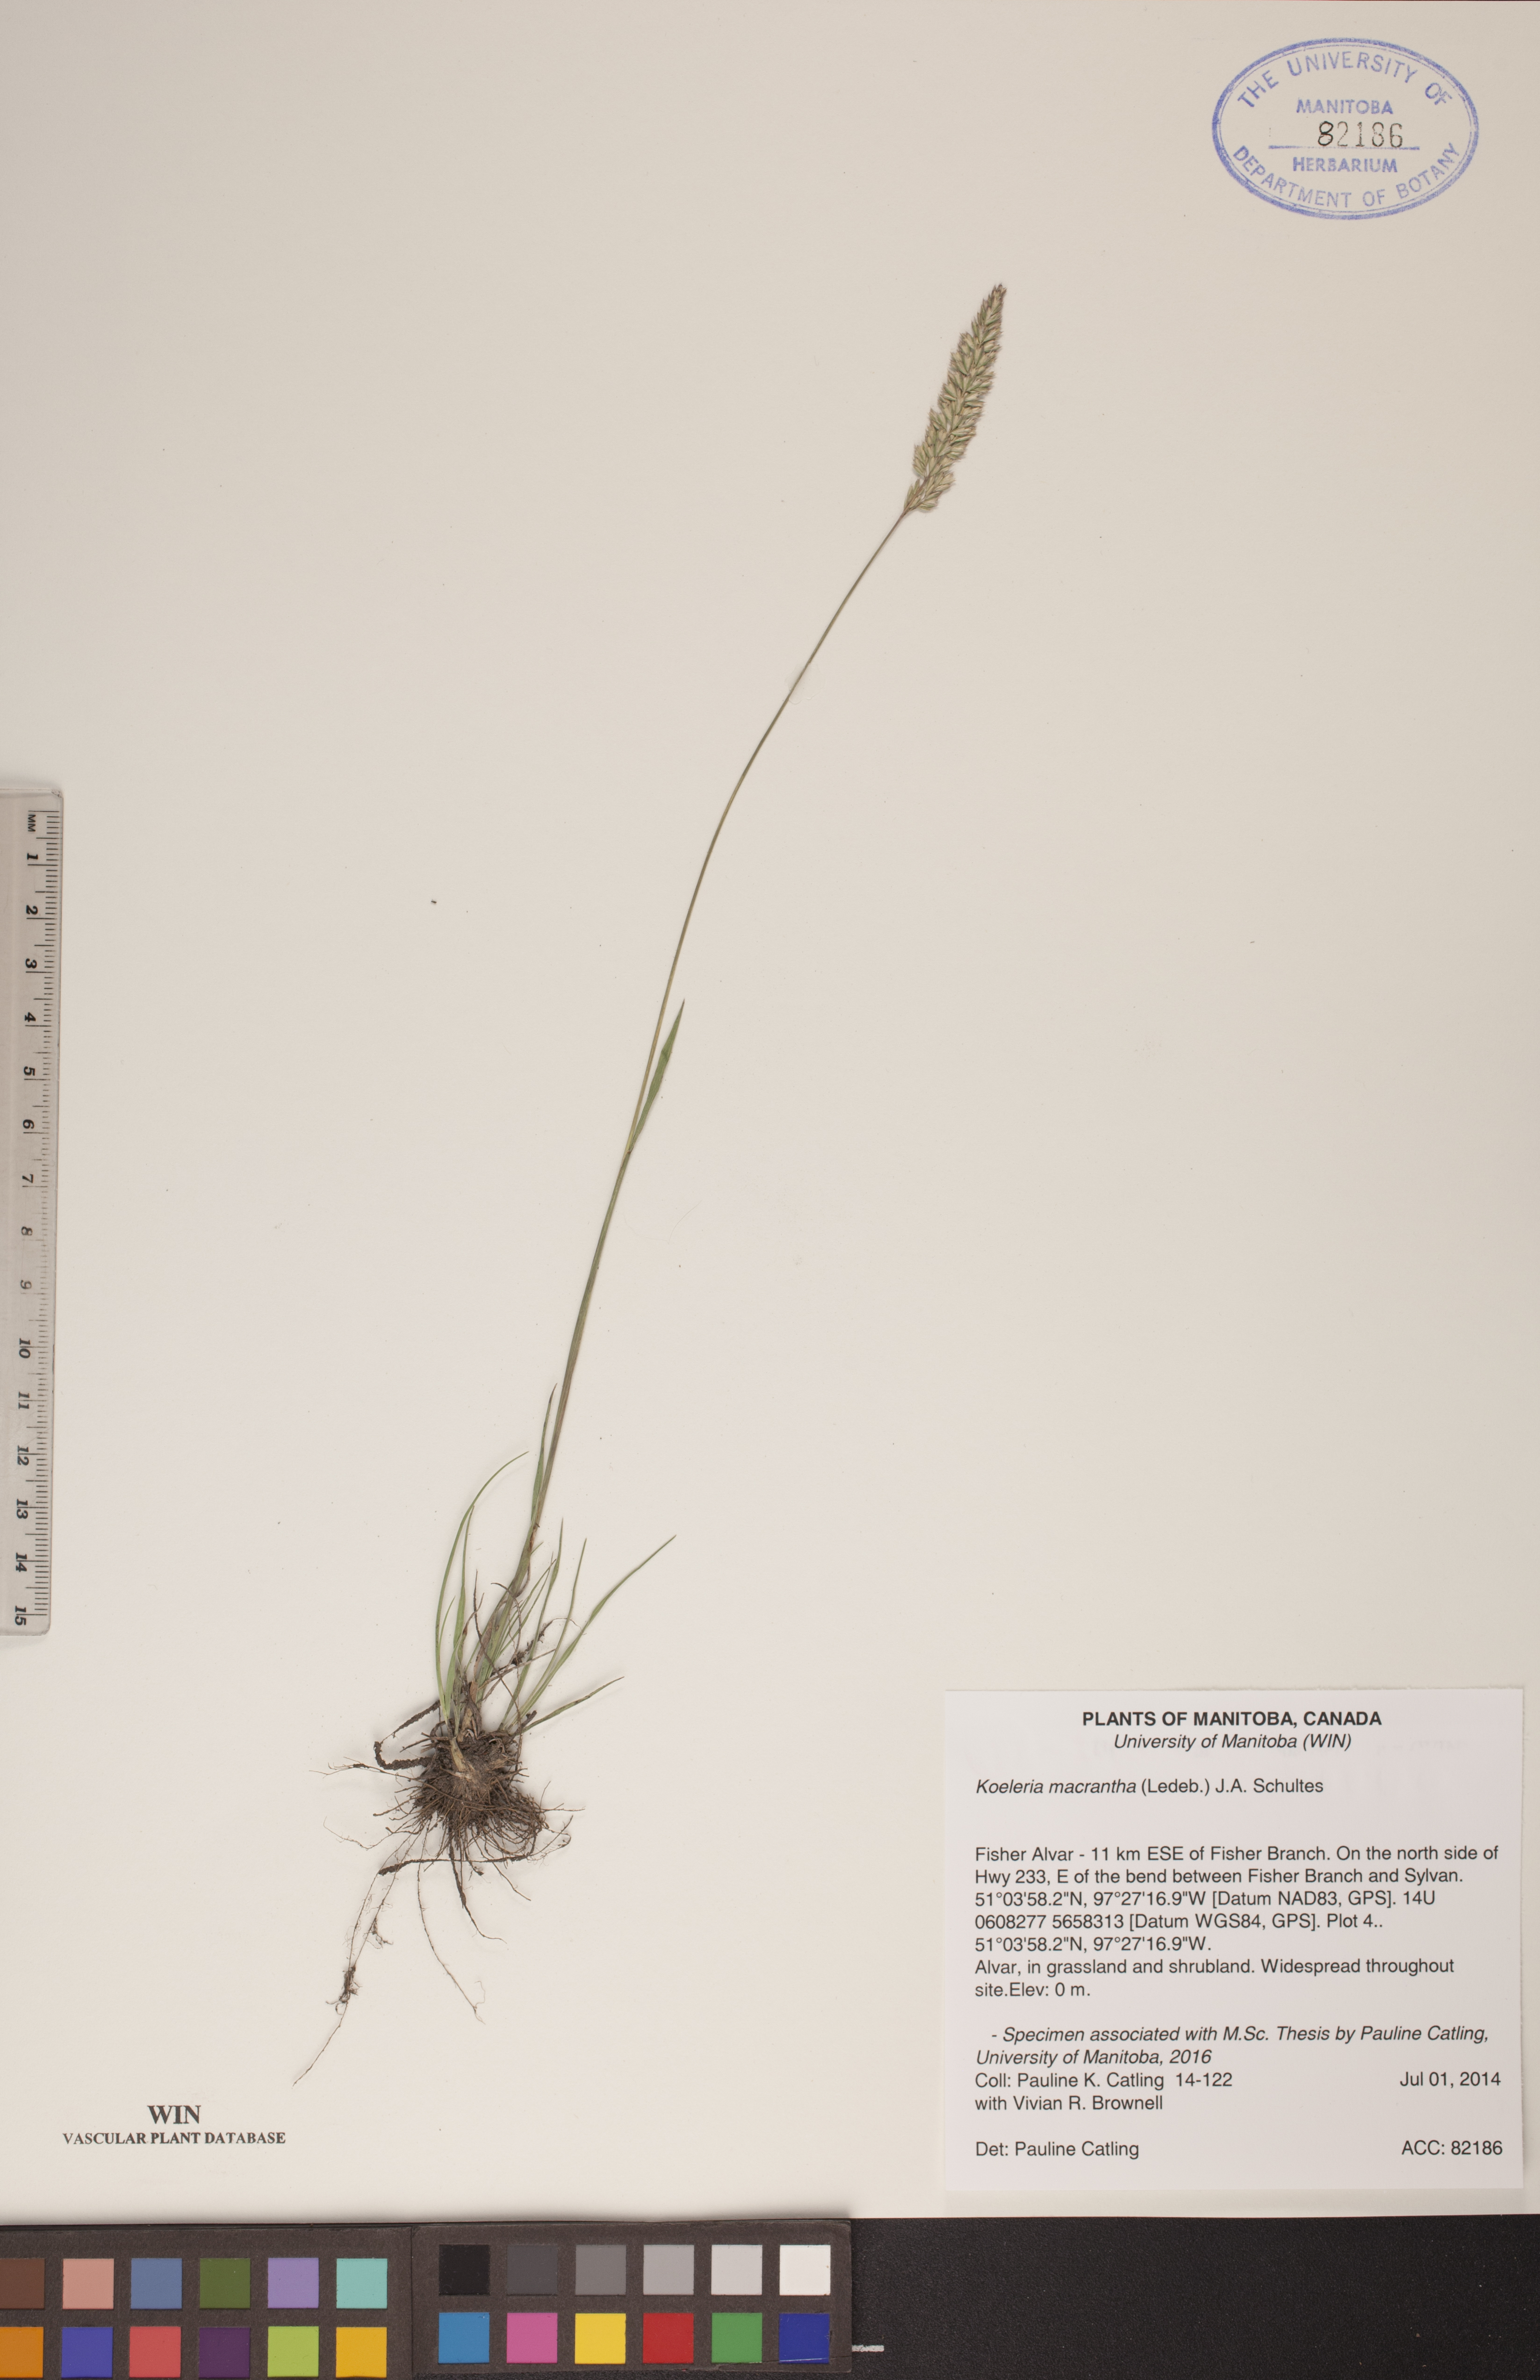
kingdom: Plantae
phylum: Tracheophyta
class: Liliopsida
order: Poales
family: Poaceae
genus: Koeleria
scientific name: Koeleria macrantha
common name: Crested hair-grass
